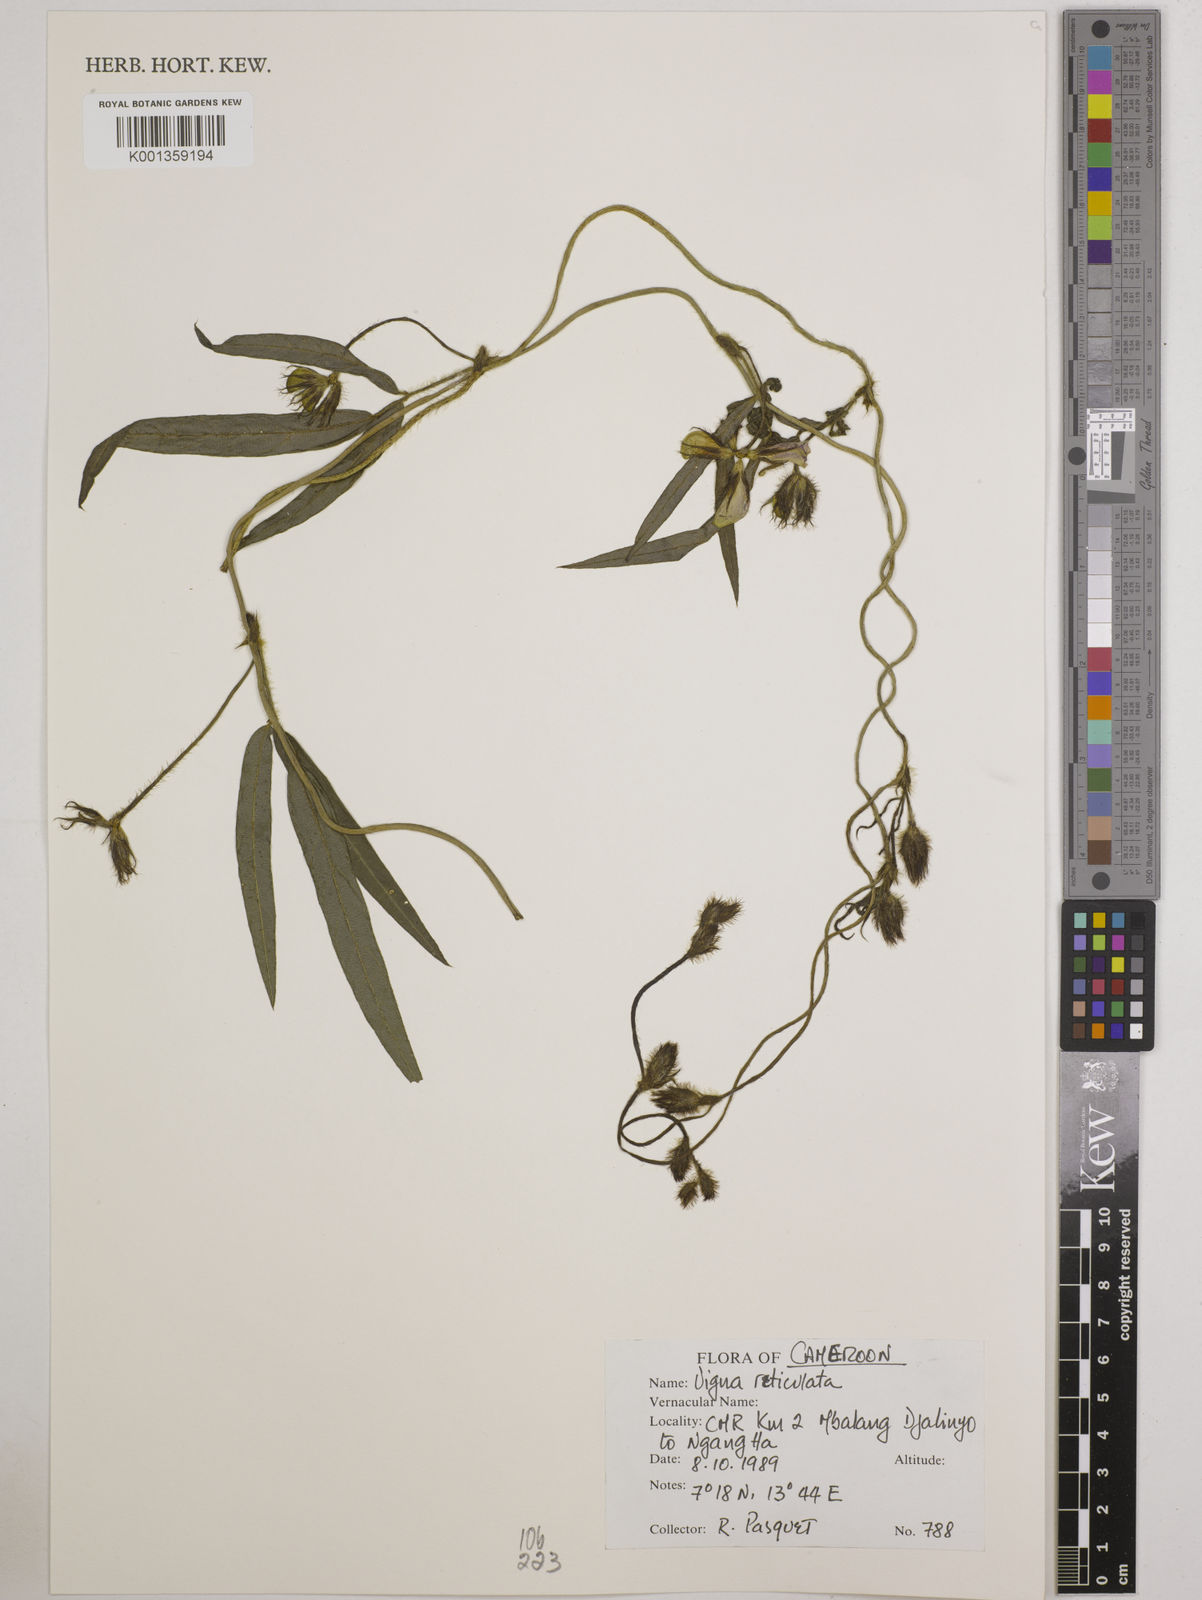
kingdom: Plantae
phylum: Tracheophyta
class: Magnoliopsida
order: Fabales
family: Fabaceae
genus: Vigna
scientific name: Vigna reticulata
